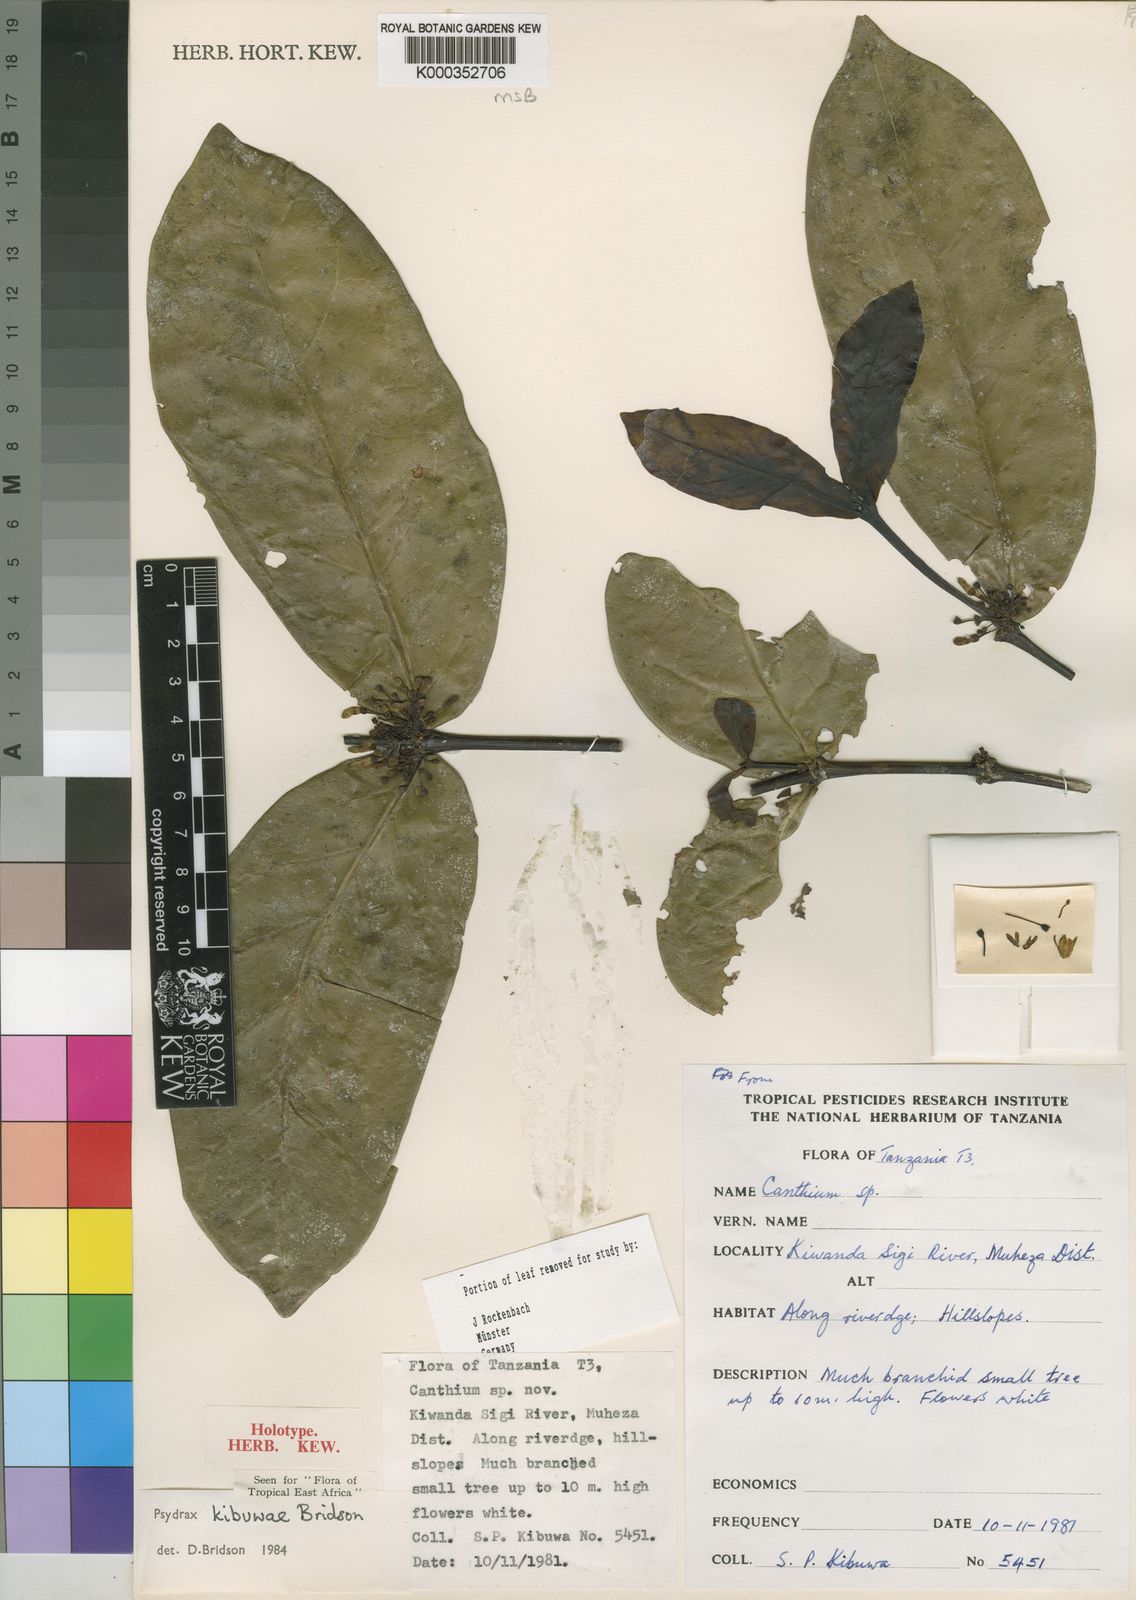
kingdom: Plantae
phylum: Tracheophyta
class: Magnoliopsida
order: Gentianales
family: Rubiaceae
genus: Psydrax
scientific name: Psydrax kibuwae
